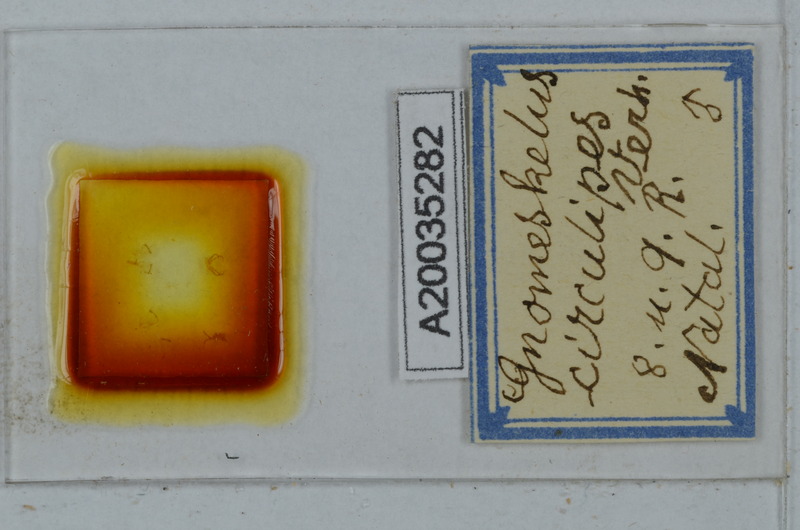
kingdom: Animalia
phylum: Arthropoda
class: Diplopoda
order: Polydesmida
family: Dalodesmidae
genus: Gnomeskelus
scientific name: Gnomeskelus circulipes
